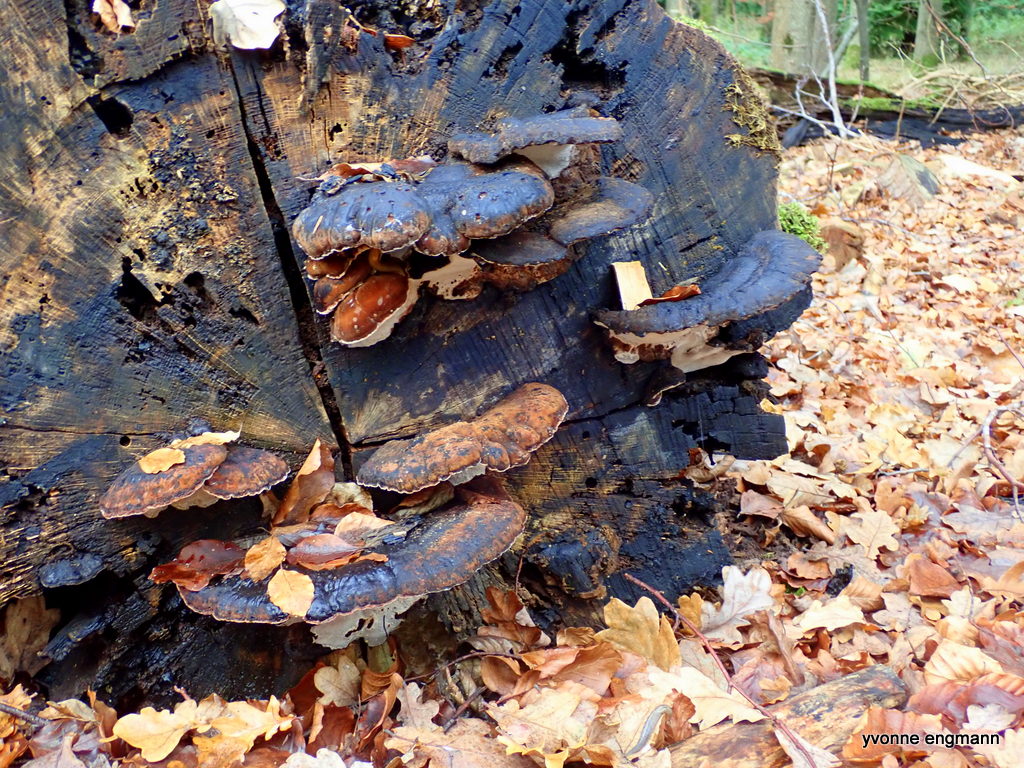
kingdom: Fungi
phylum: Basidiomycota
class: Agaricomycetes
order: Polyporales
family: Ischnodermataceae
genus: Ischnoderma
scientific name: Ischnoderma resinosum
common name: løv-tjæreporesvamp
